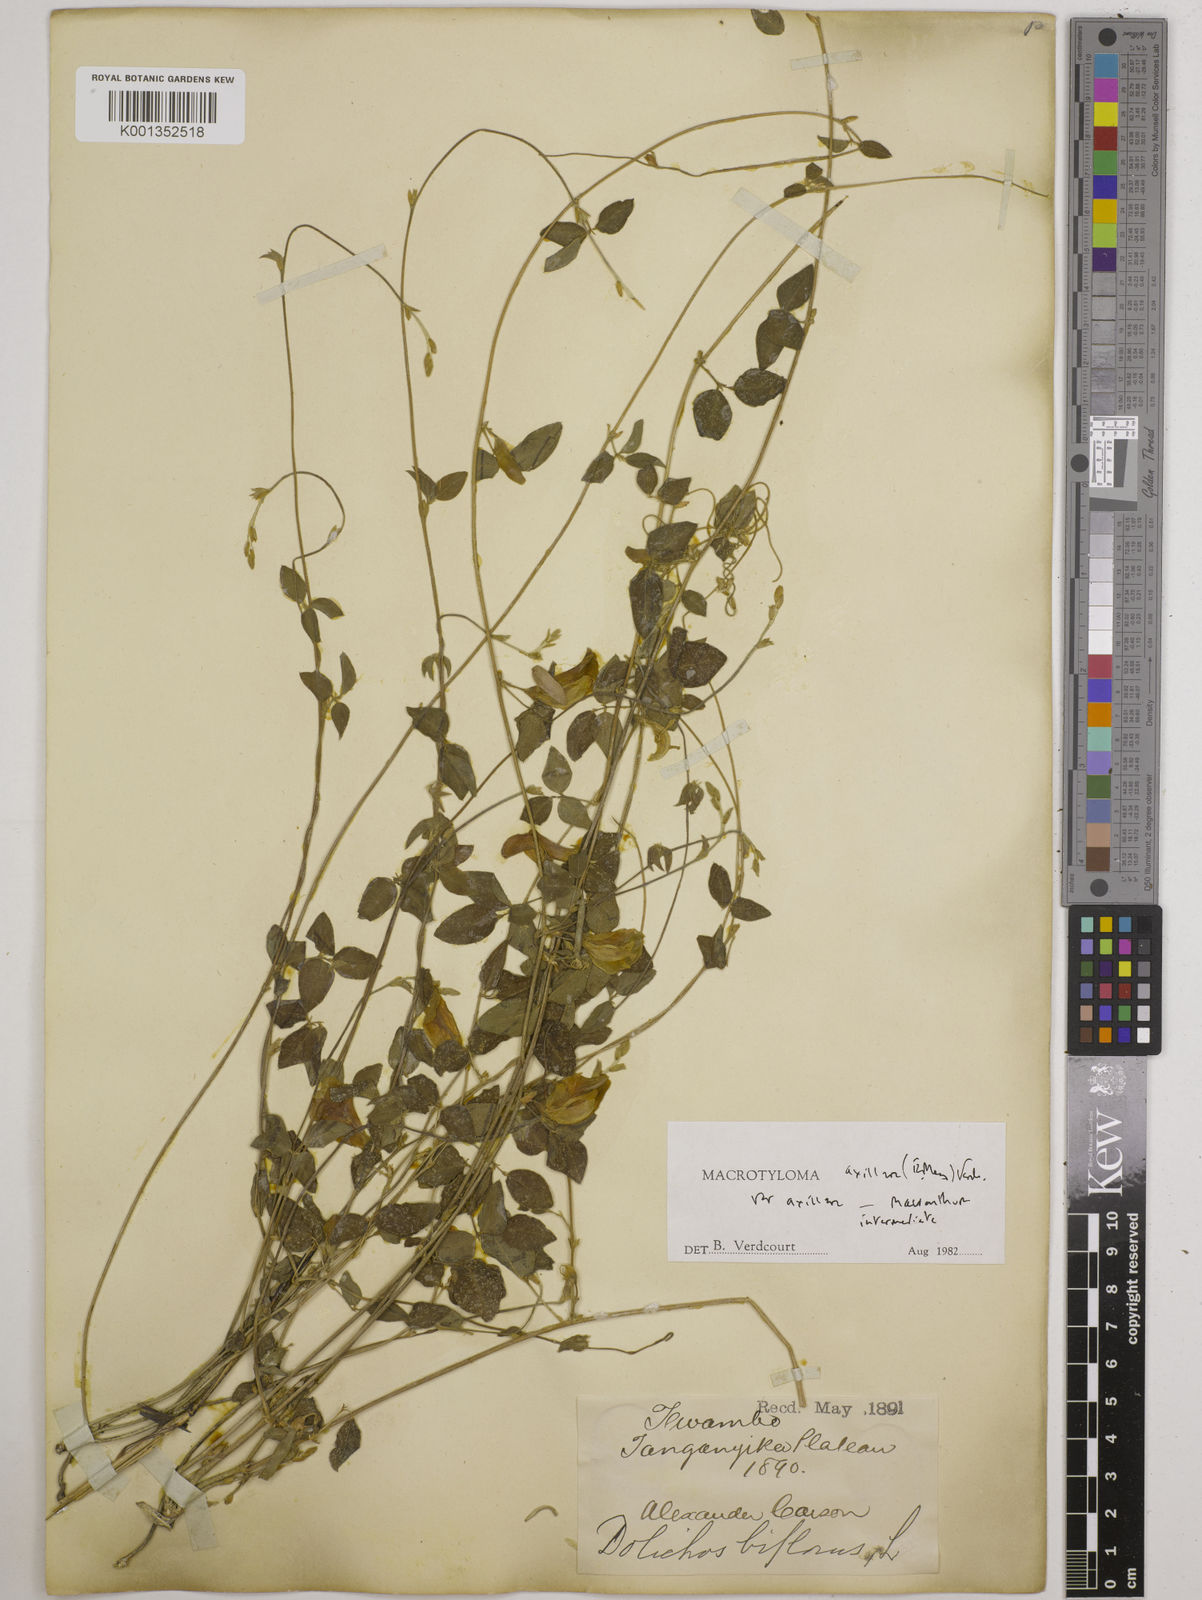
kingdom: Plantae
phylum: Tracheophyta
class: Magnoliopsida
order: Fabales
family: Fabaceae
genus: Macrotyloma
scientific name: Macrotyloma
